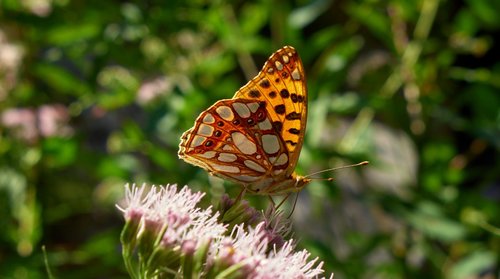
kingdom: Animalia
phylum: Arthropoda
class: Insecta
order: Lepidoptera
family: Nymphalidae
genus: Issoria
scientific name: Issoria lathonia
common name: Queen of spain fritillary
